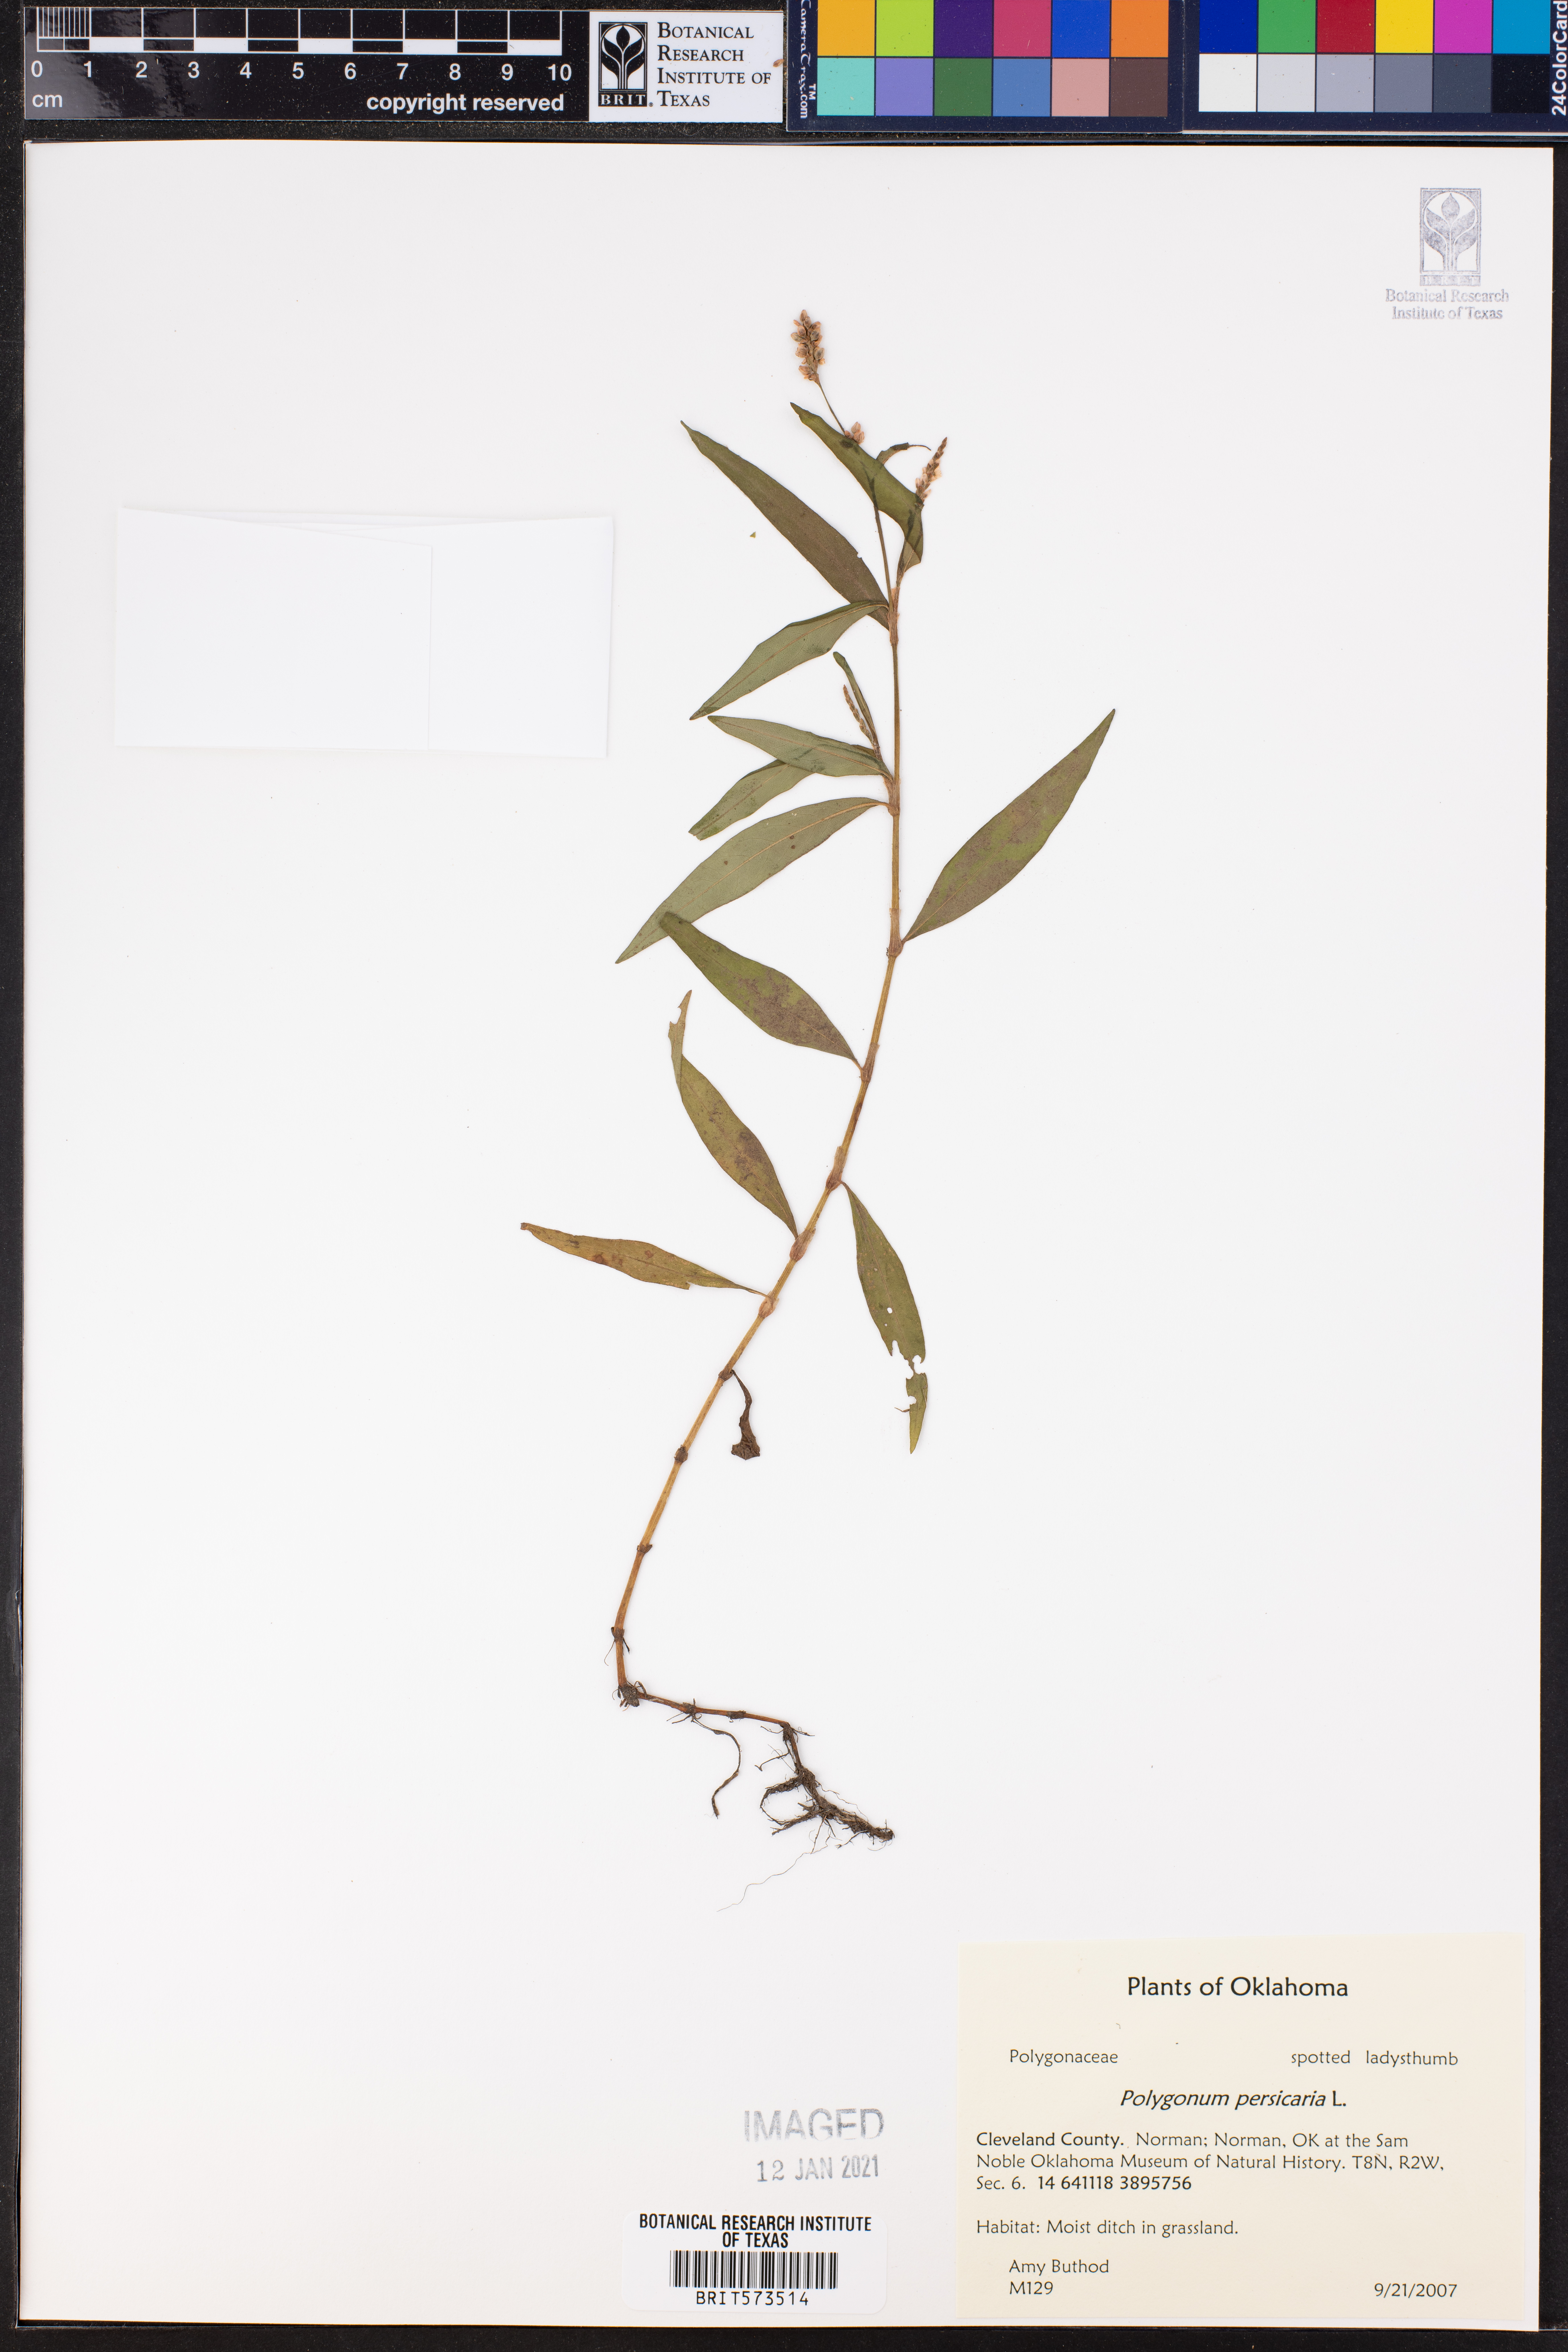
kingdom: Plantae
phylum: Tracheophyta
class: Magnoliopsida
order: Caryophyllales
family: Polygonaceae
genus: Persicaria
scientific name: Persicaria maculosa
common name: Redshank
